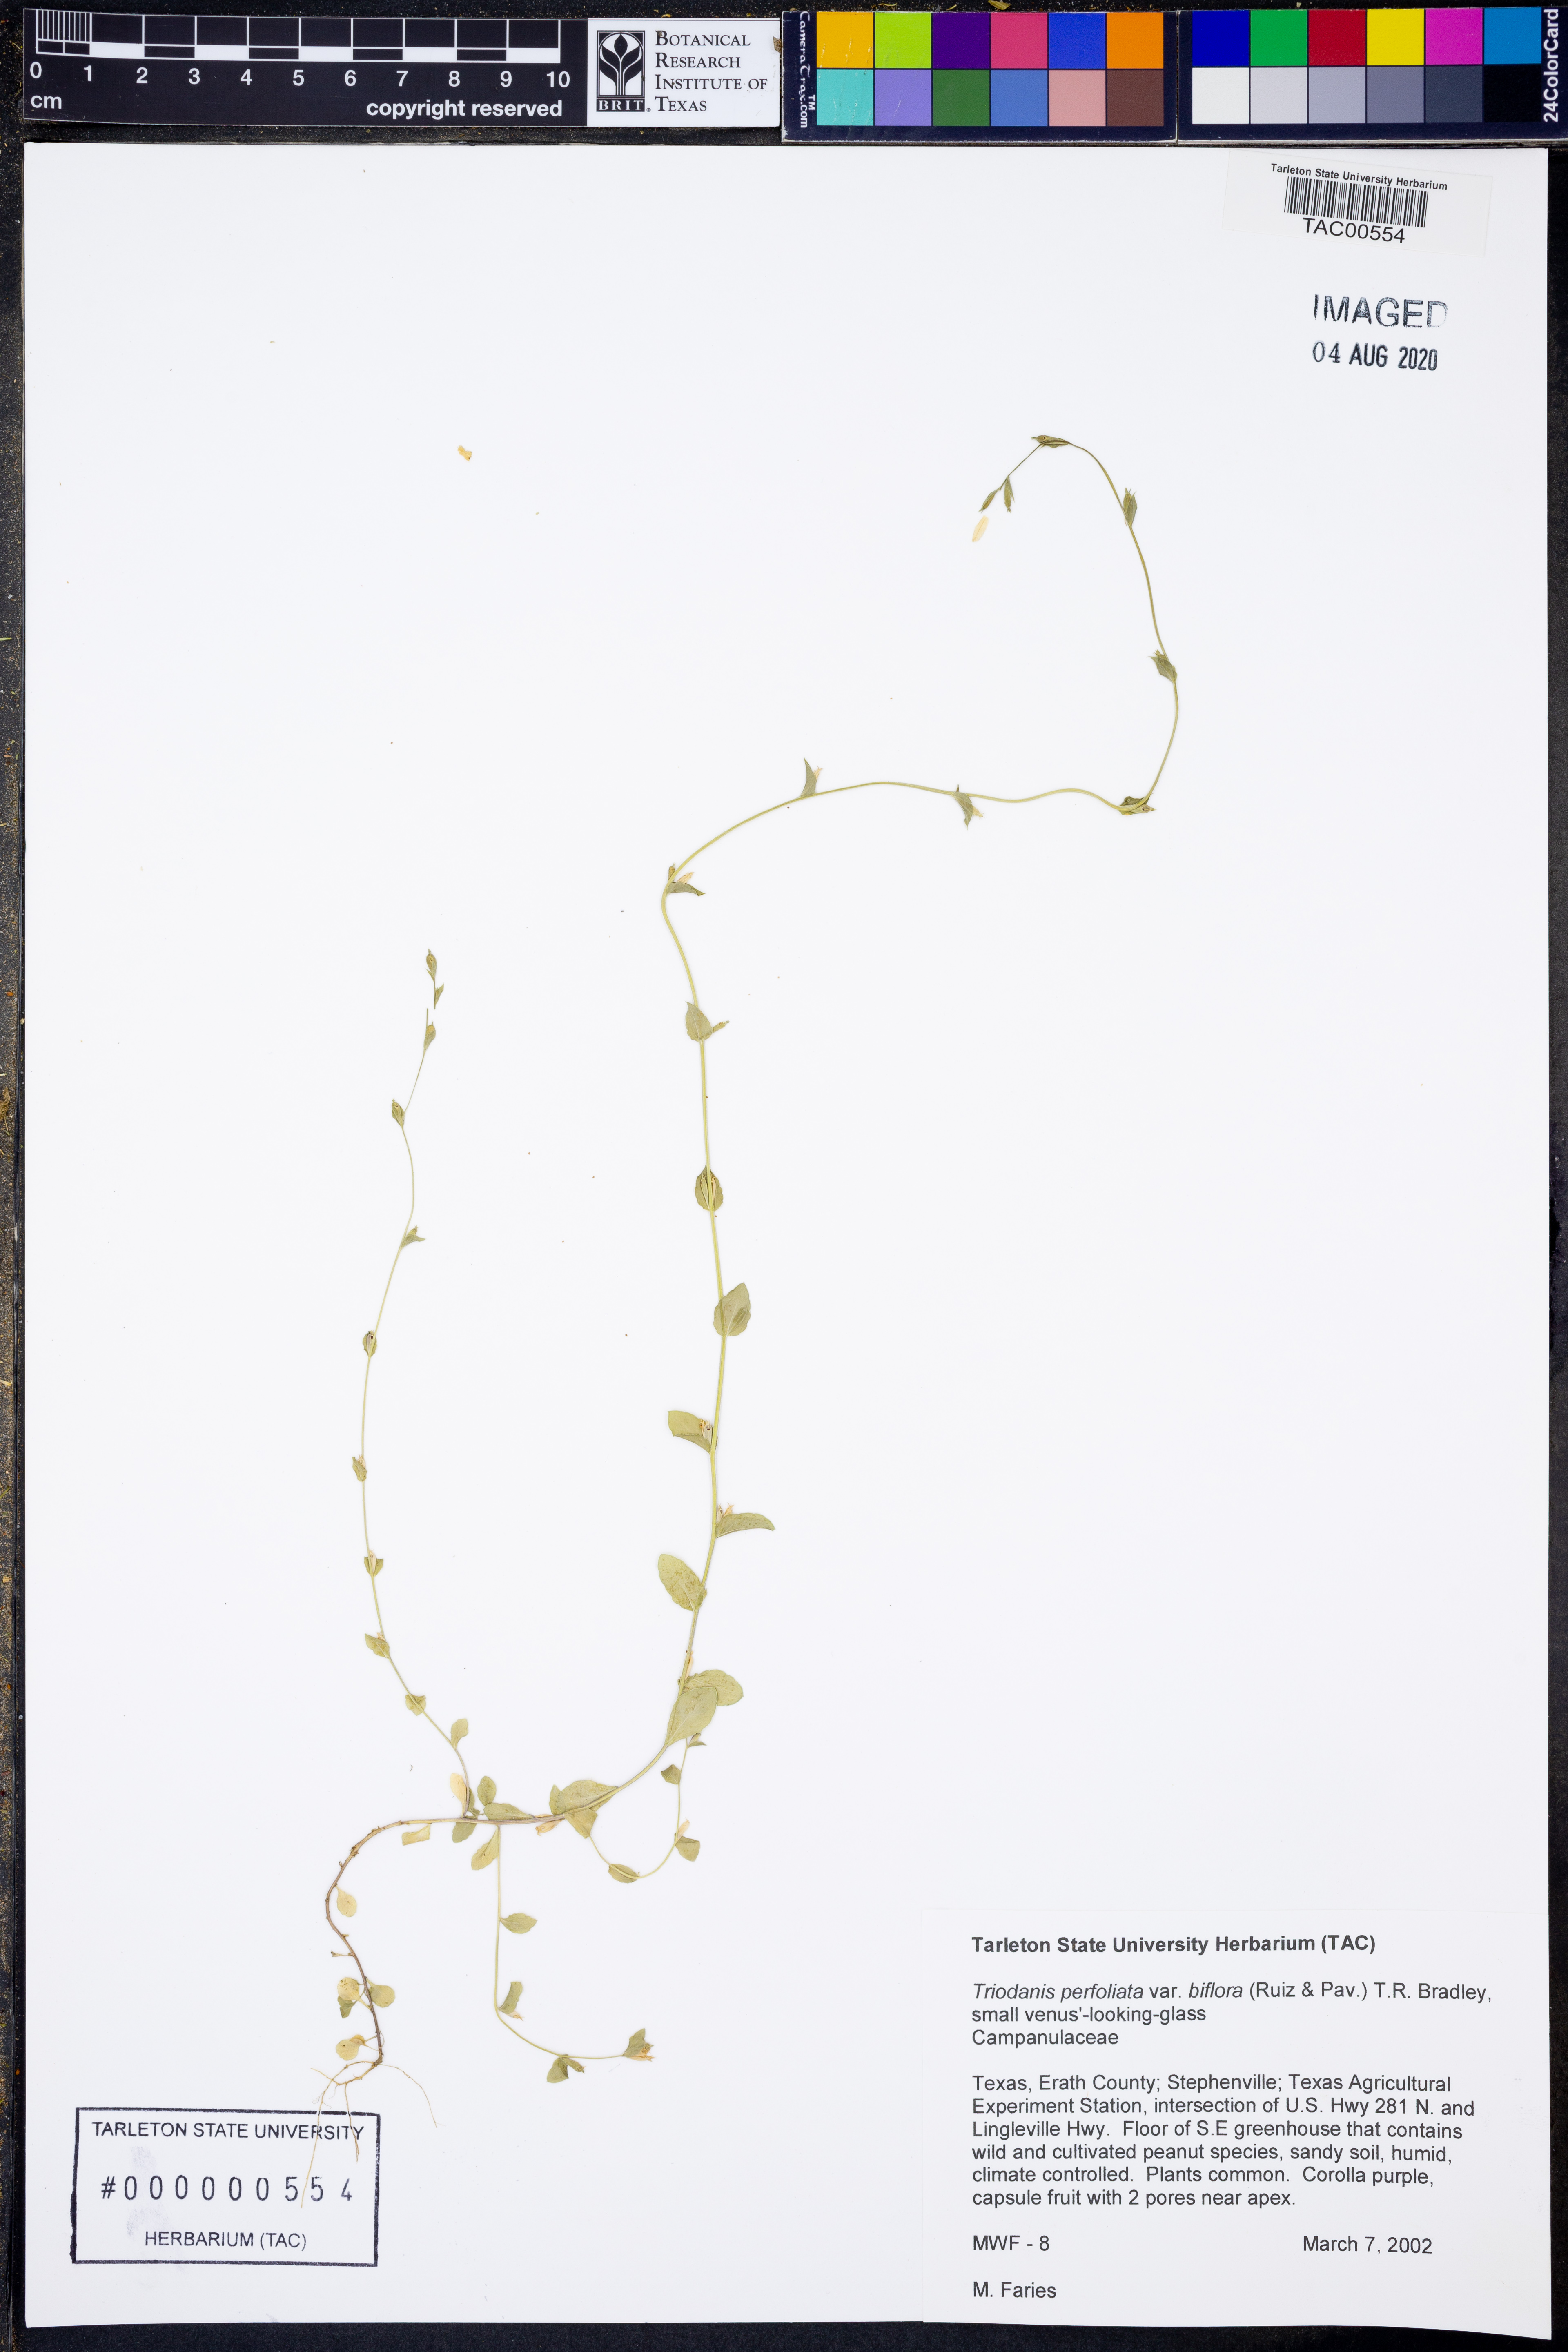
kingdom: Plantae
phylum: Tracheophyta
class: Magnoliopsida
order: Asterales
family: Campanulaceae
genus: Triodanis
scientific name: Triodanis perfoliata
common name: Clasping venus' looking-glass
